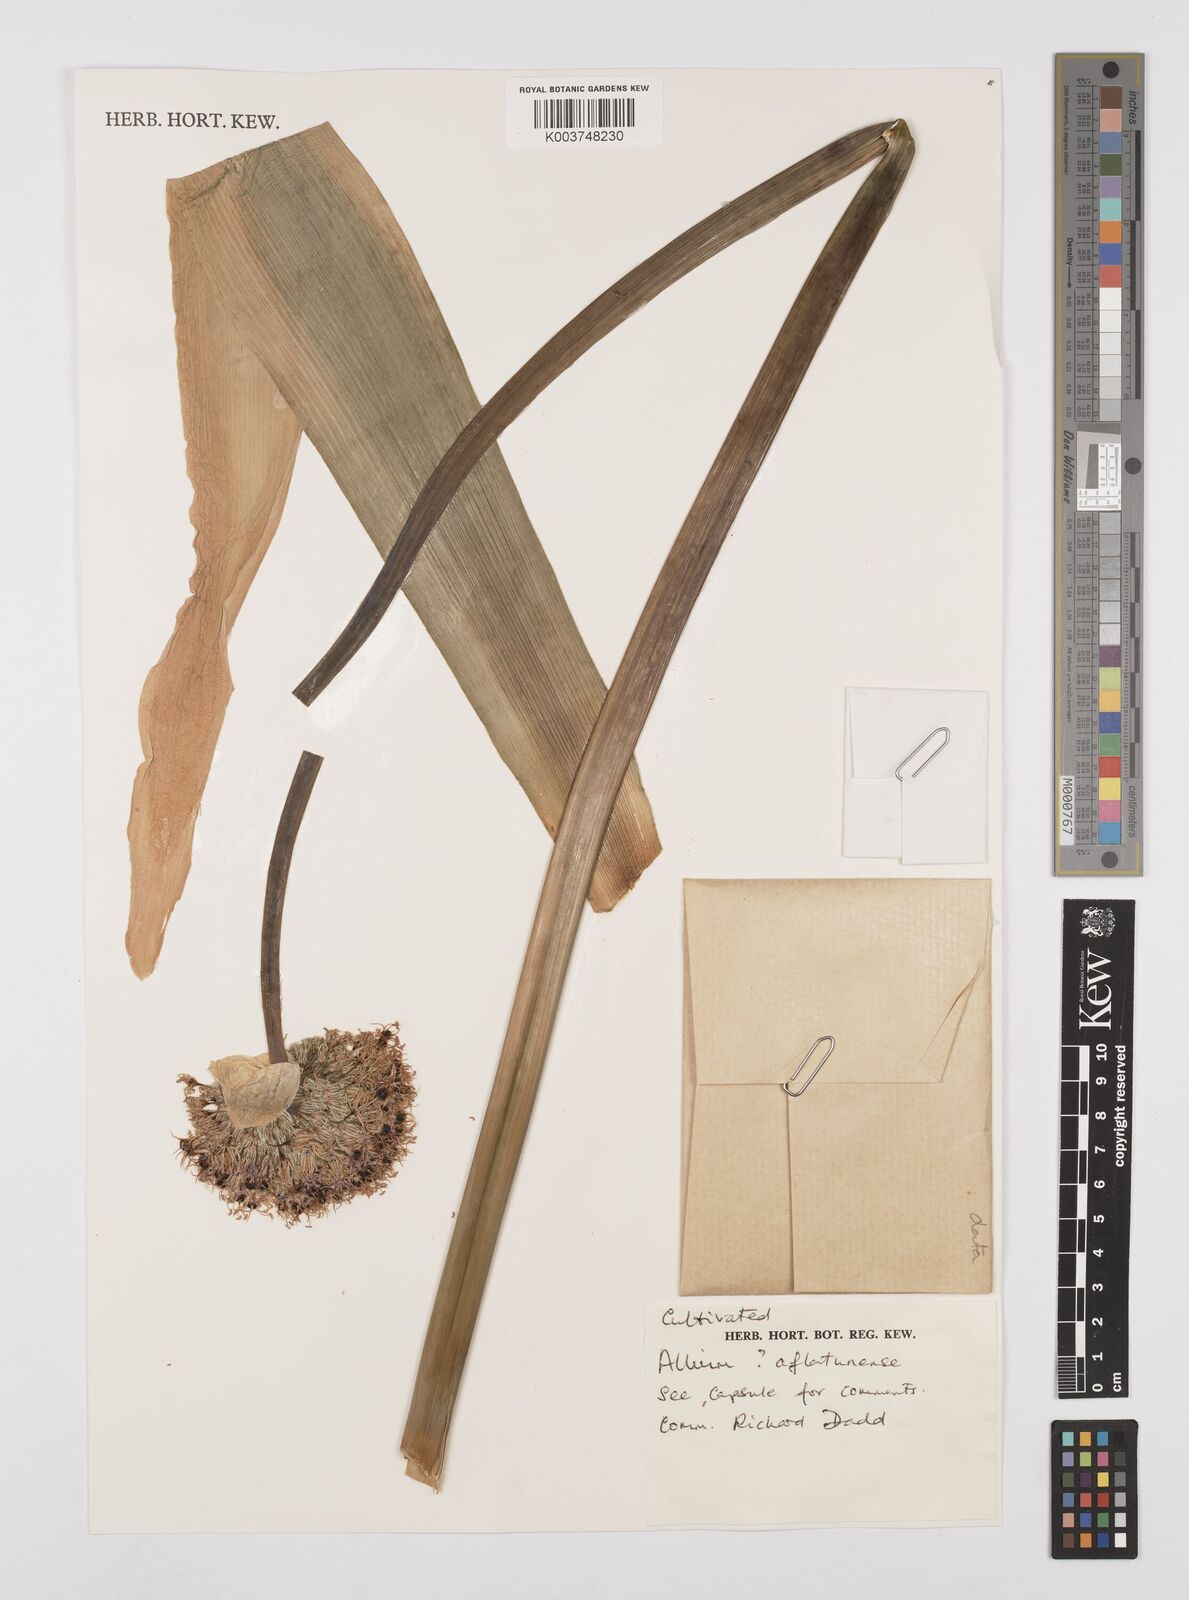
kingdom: Plantae
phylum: Tracheophyta
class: Liliopsida
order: Asparagales
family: Amaryllidaceae
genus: Allium
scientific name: Allium aflatunense
